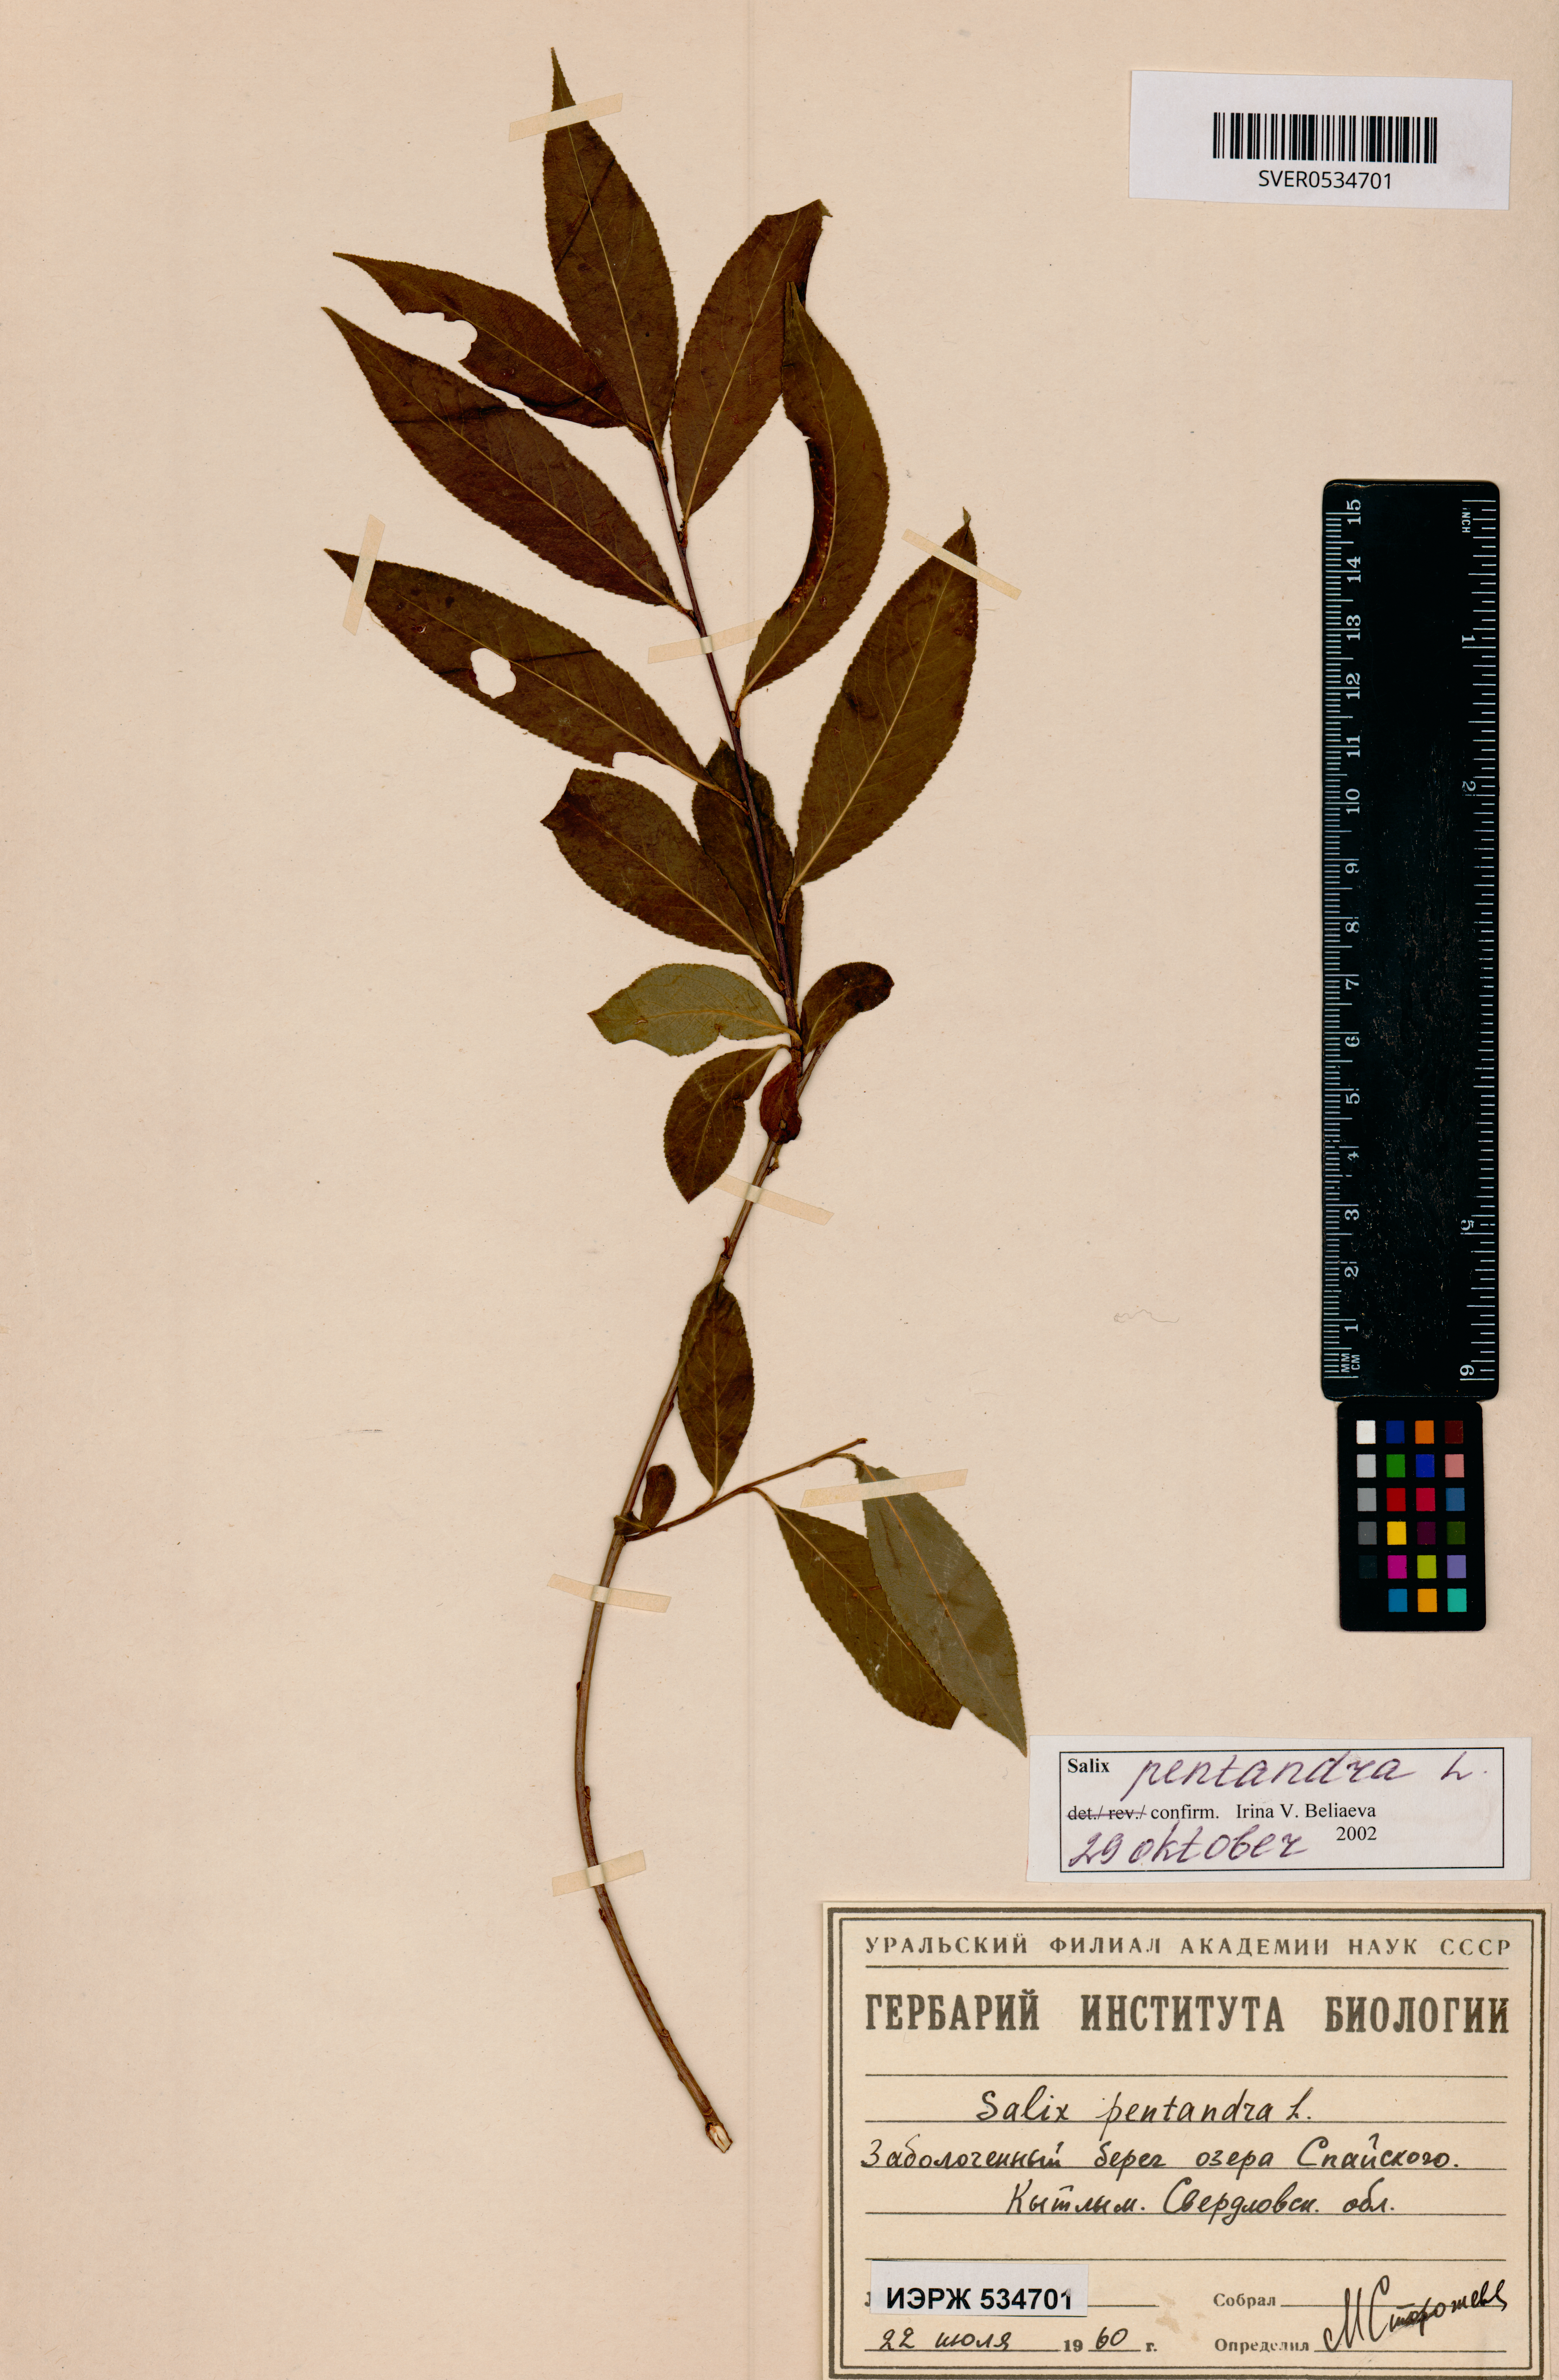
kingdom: Plantae
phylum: Tracheophyta
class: Magnoliopsida
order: Malpighiales
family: Salicaceae
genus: Salix
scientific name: Salix pentandra
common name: Bay willow
